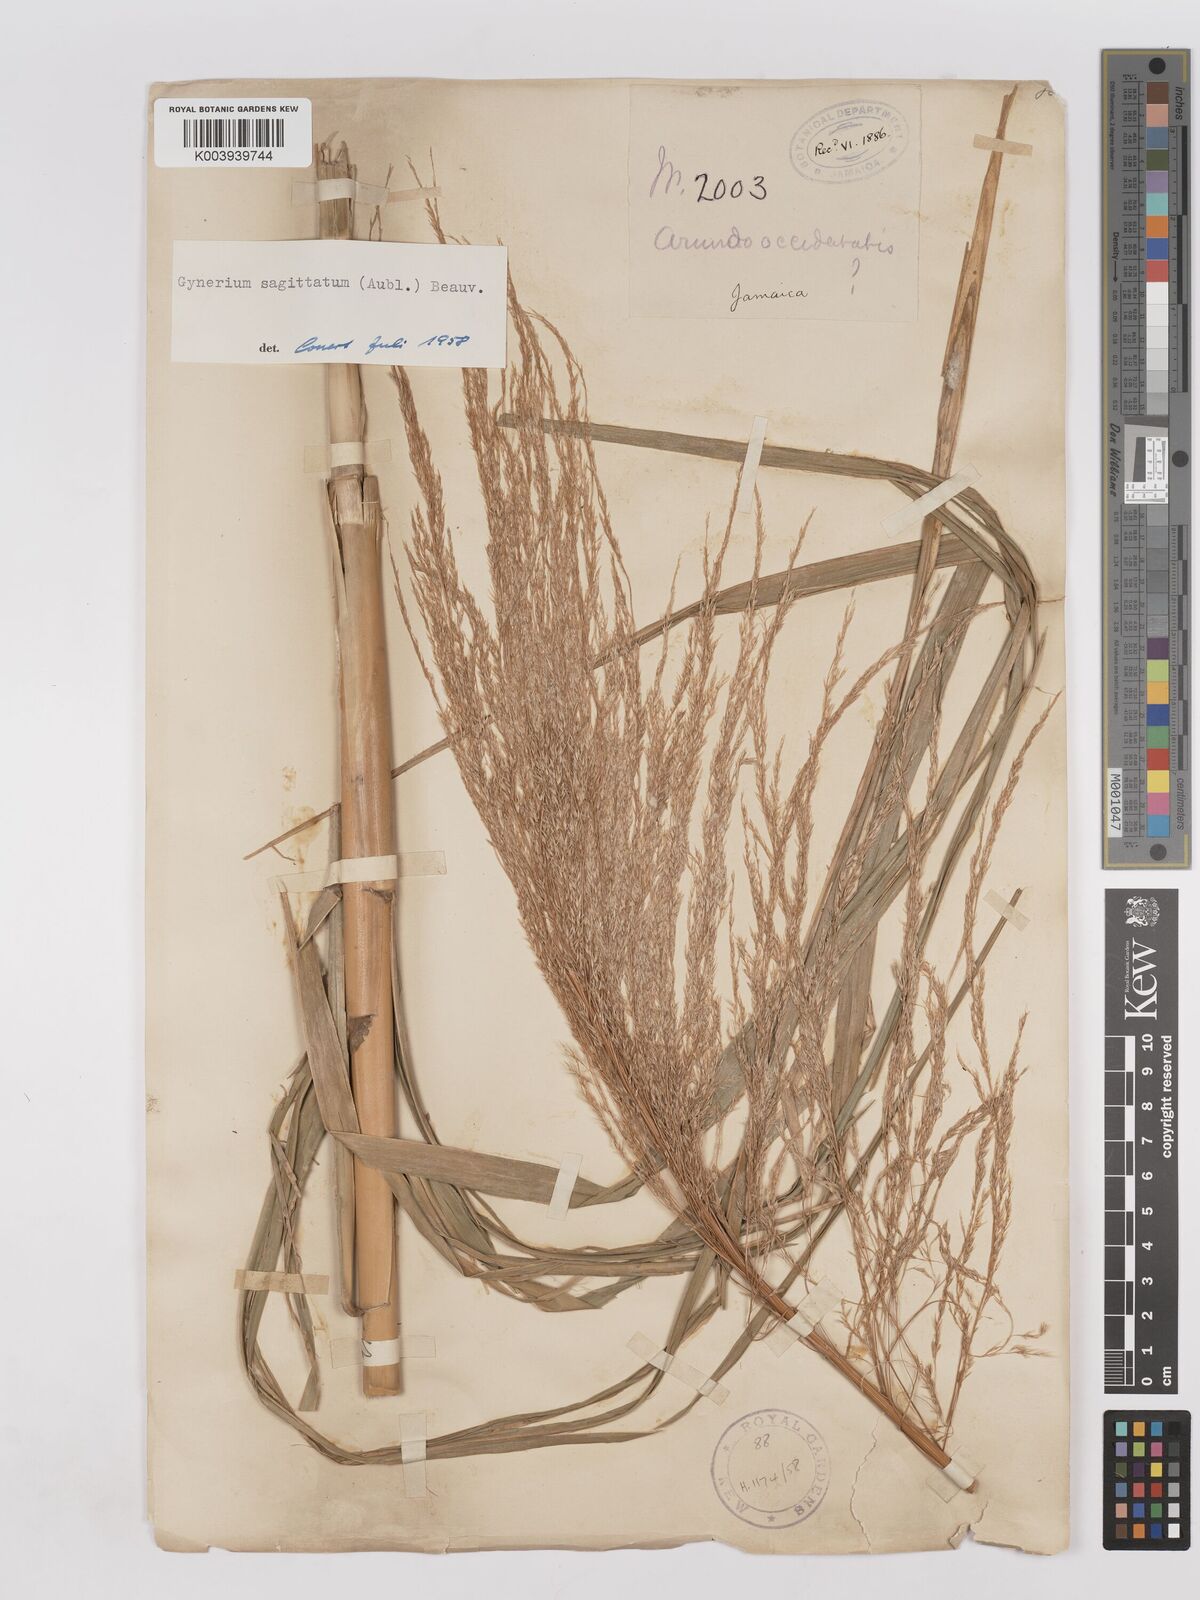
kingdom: Plantae
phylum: Tracheophyta
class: Liliopsida
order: Poales
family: Poaceae
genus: Gynerium
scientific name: Gynerium sagittatum
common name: Wild cane
